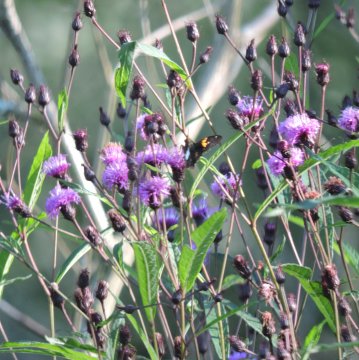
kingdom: Animalia
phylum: Arthropoda
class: Insecta
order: Lepidoptera
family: Hesperiidae
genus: Epargyreus
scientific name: Epargyreus clarus
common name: Silver-spotted Skipper
